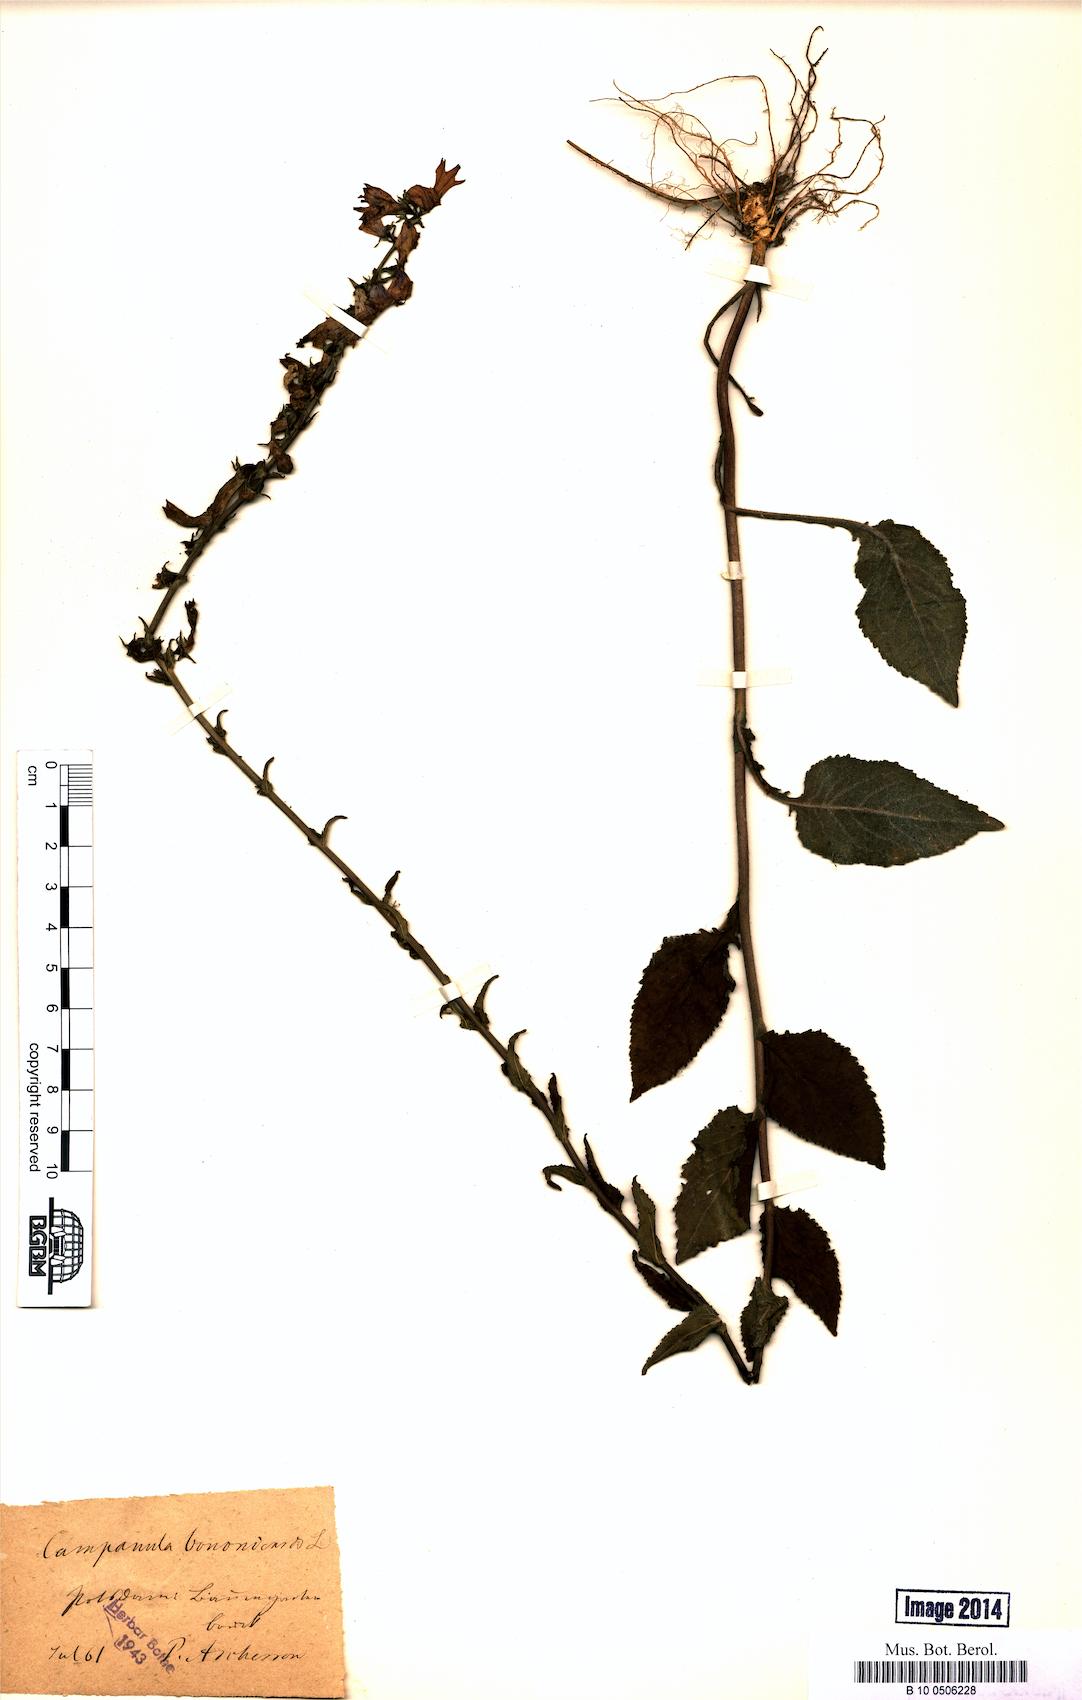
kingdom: Plantae
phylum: Tracheophyta
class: Magnoliopsida
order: Asterales
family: Campanulaceae
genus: Campanula
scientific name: Campanula bononiensis
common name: Pale bellflower
